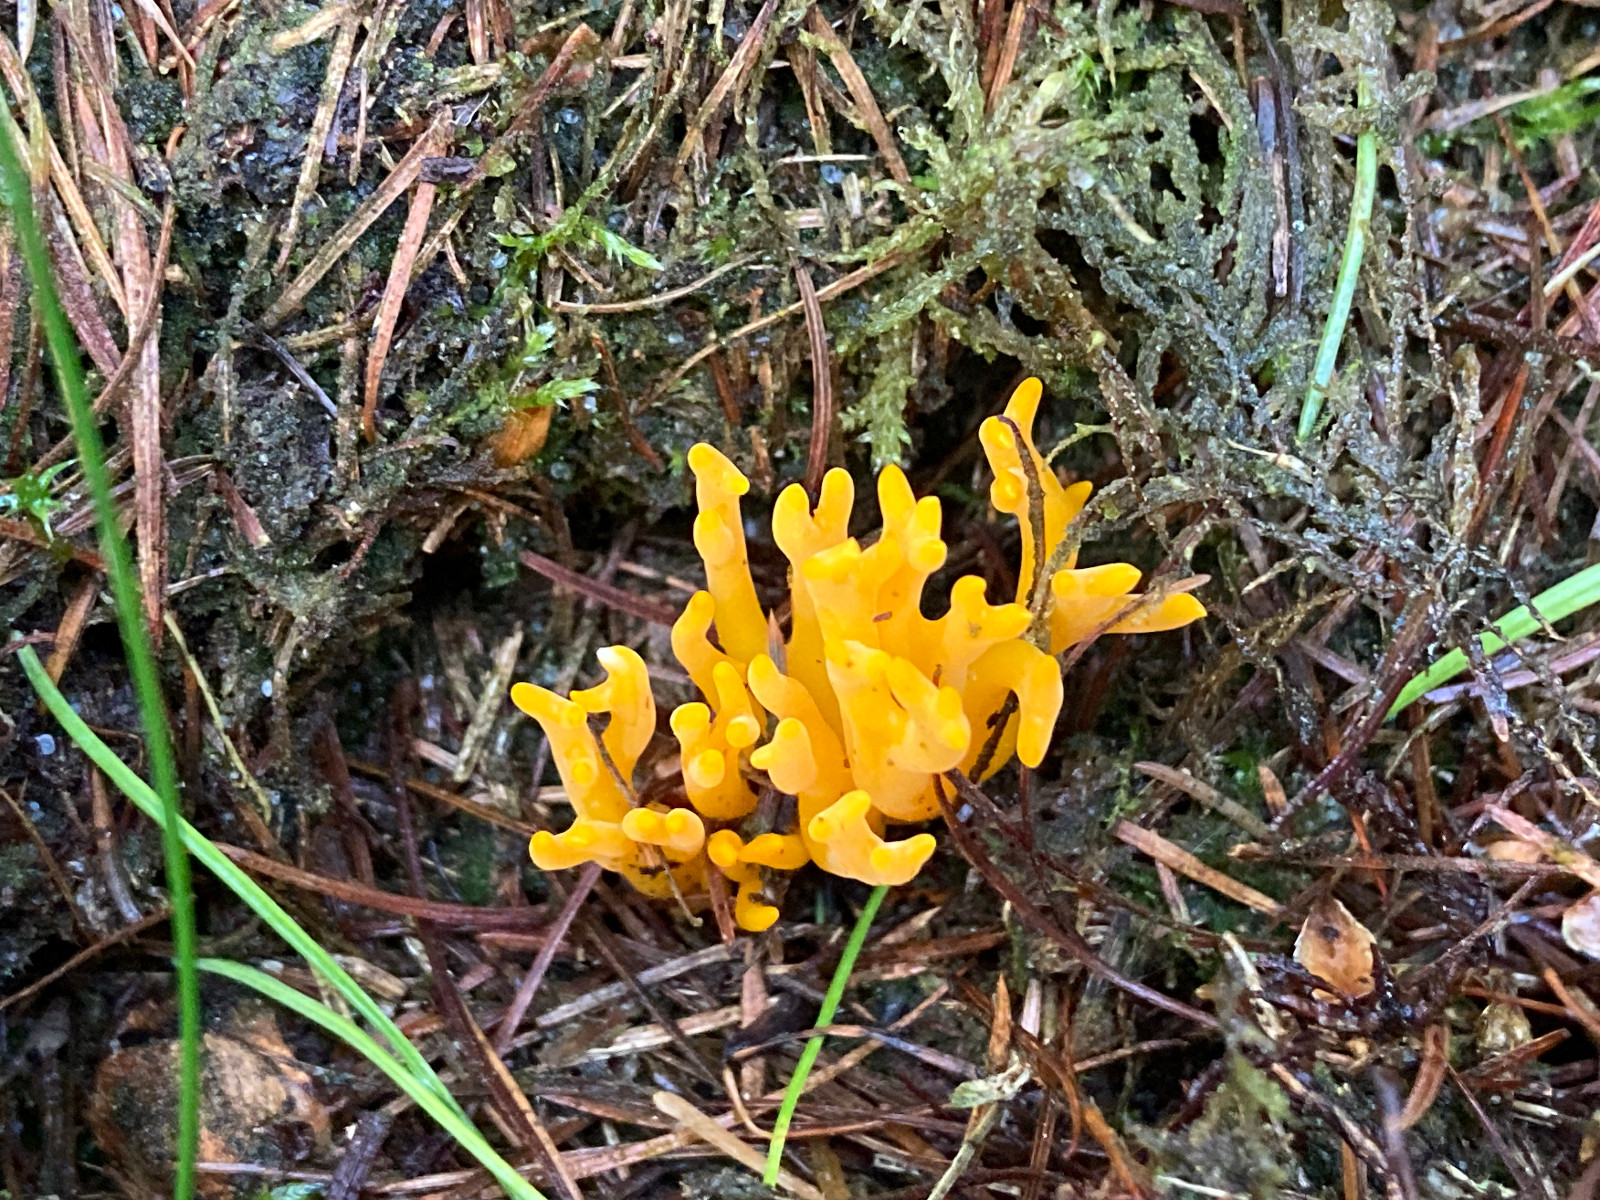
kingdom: Fungi
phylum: Basidiomycota
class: Dacrymycetes
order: Dacrymycetales
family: Dacrymycetaceae
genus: Calocera
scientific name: Calocera viscosa
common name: almindelig guldgaffel
